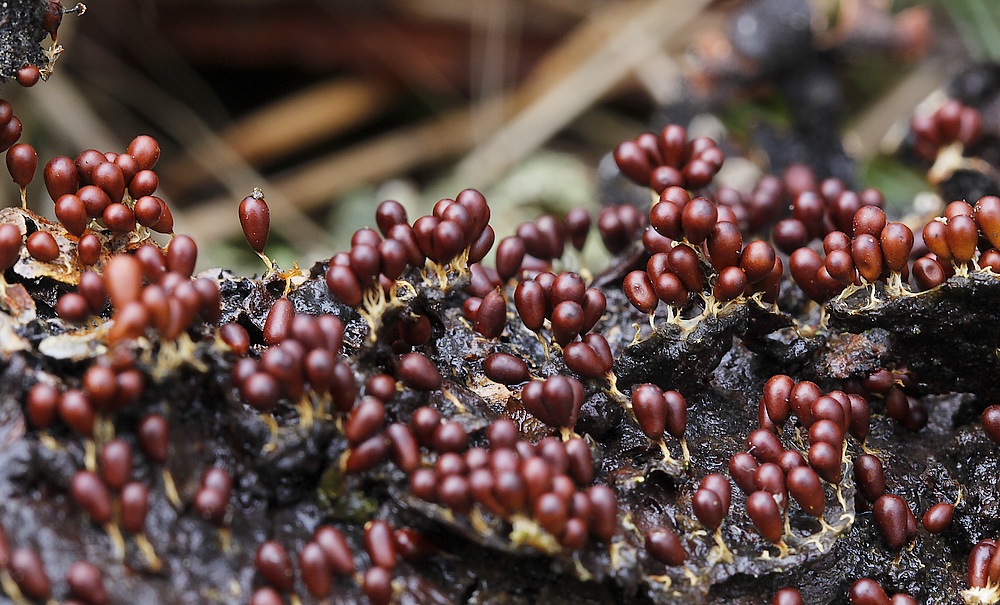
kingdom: Protozoa
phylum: Mycetozoa
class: Myxomycetes
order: Physarales
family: Physaraceae
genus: Leocarpus
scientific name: Leocarpus fragilis
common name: poleret glatfrø
